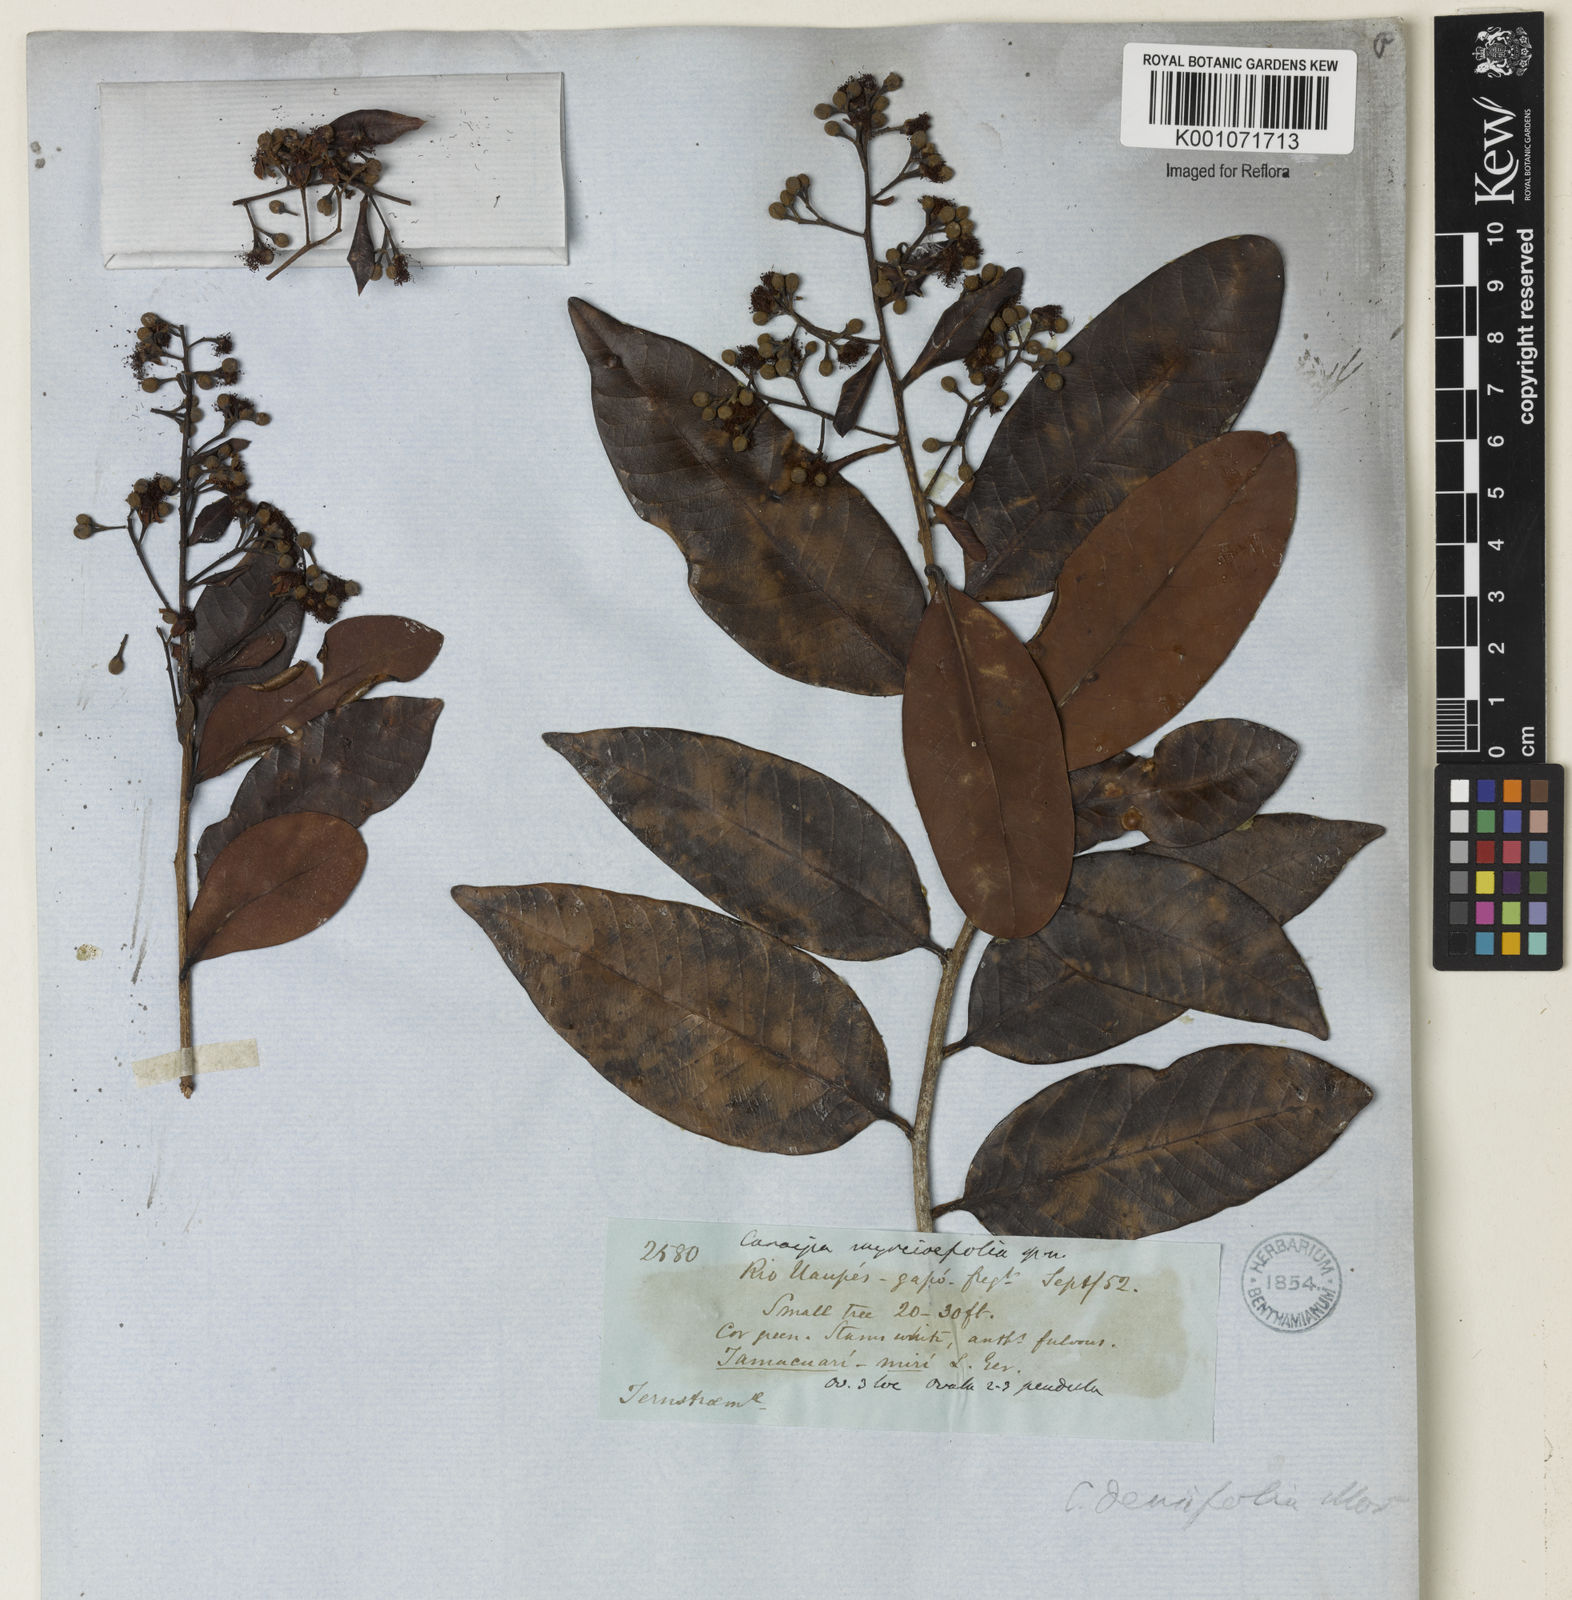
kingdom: Plantae
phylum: Tracheophyta
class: Magnoliopsida
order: Malpighiales
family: Calophyllaceae
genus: Caraipa
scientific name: Caraipa densifolia
